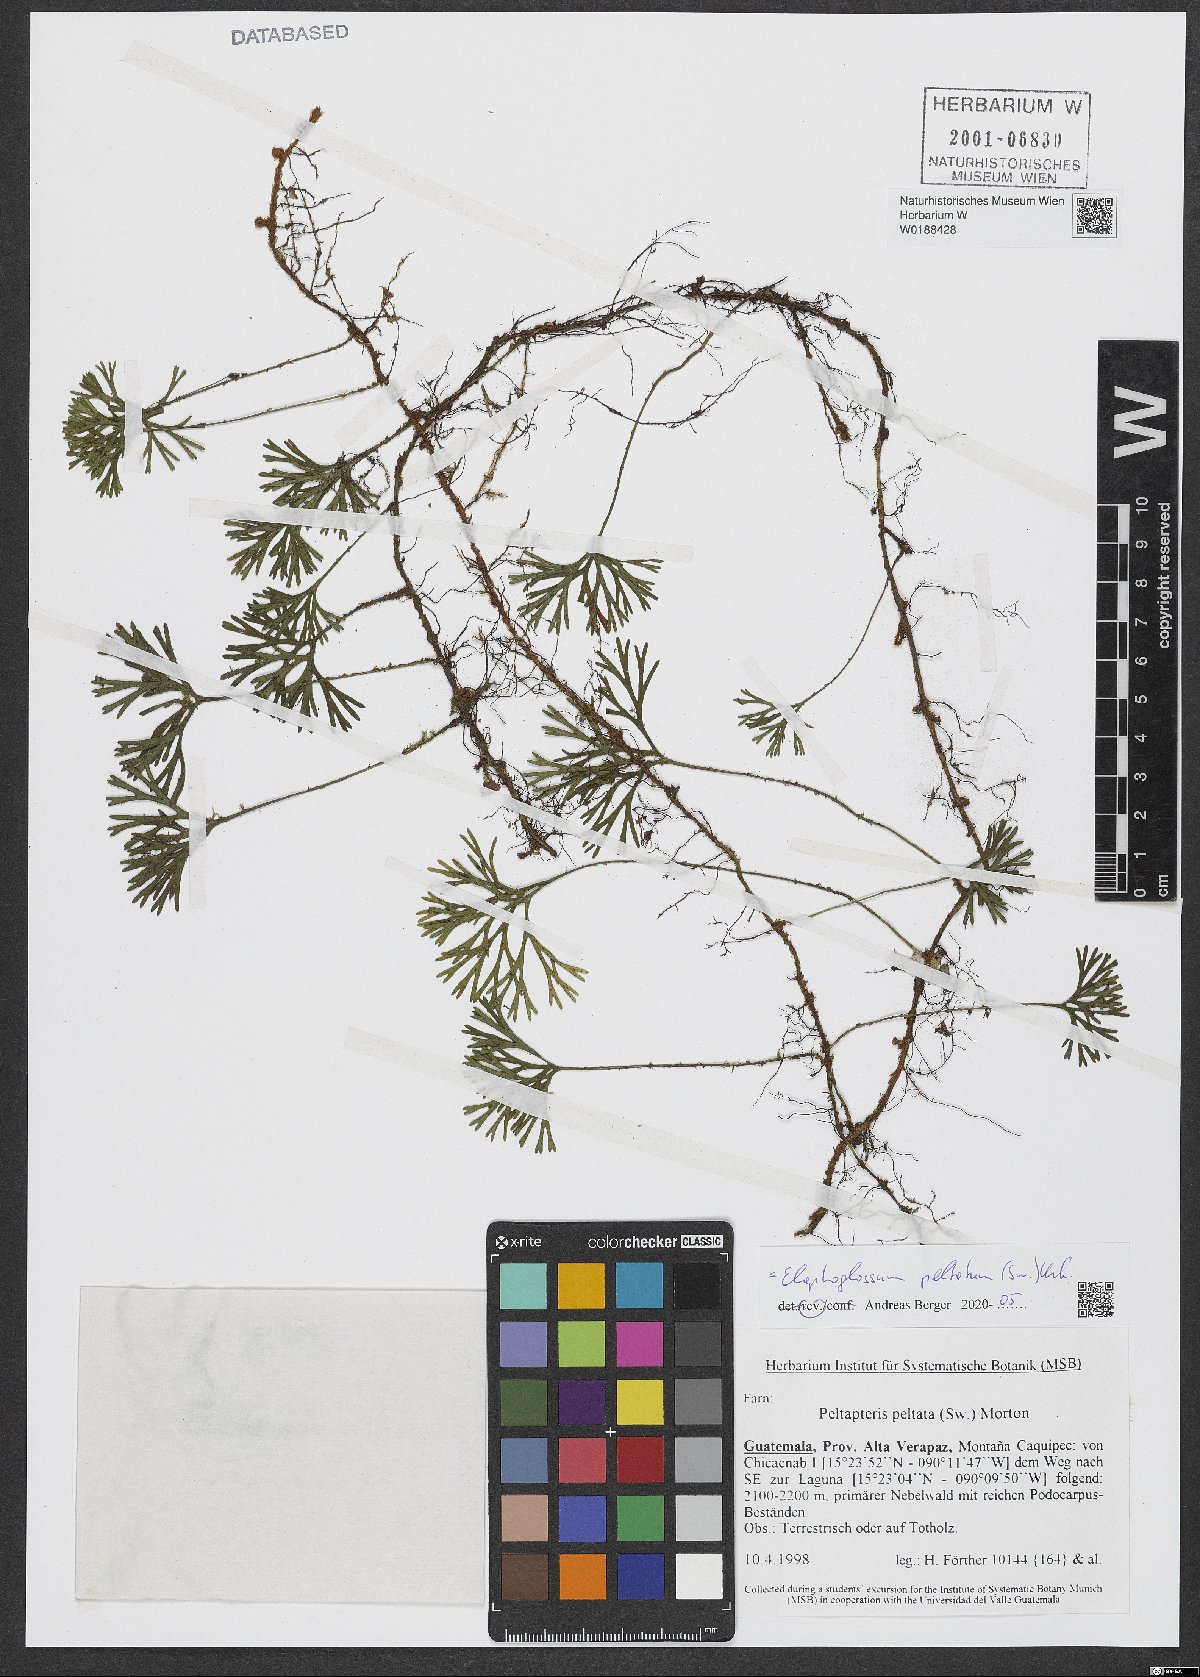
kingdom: Plantae
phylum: Tracheophyta
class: Polypodiopsida
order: Polypodiales
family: Dryopteridaceae
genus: Elaphoglossum
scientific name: Elaphoglossum peltatum
